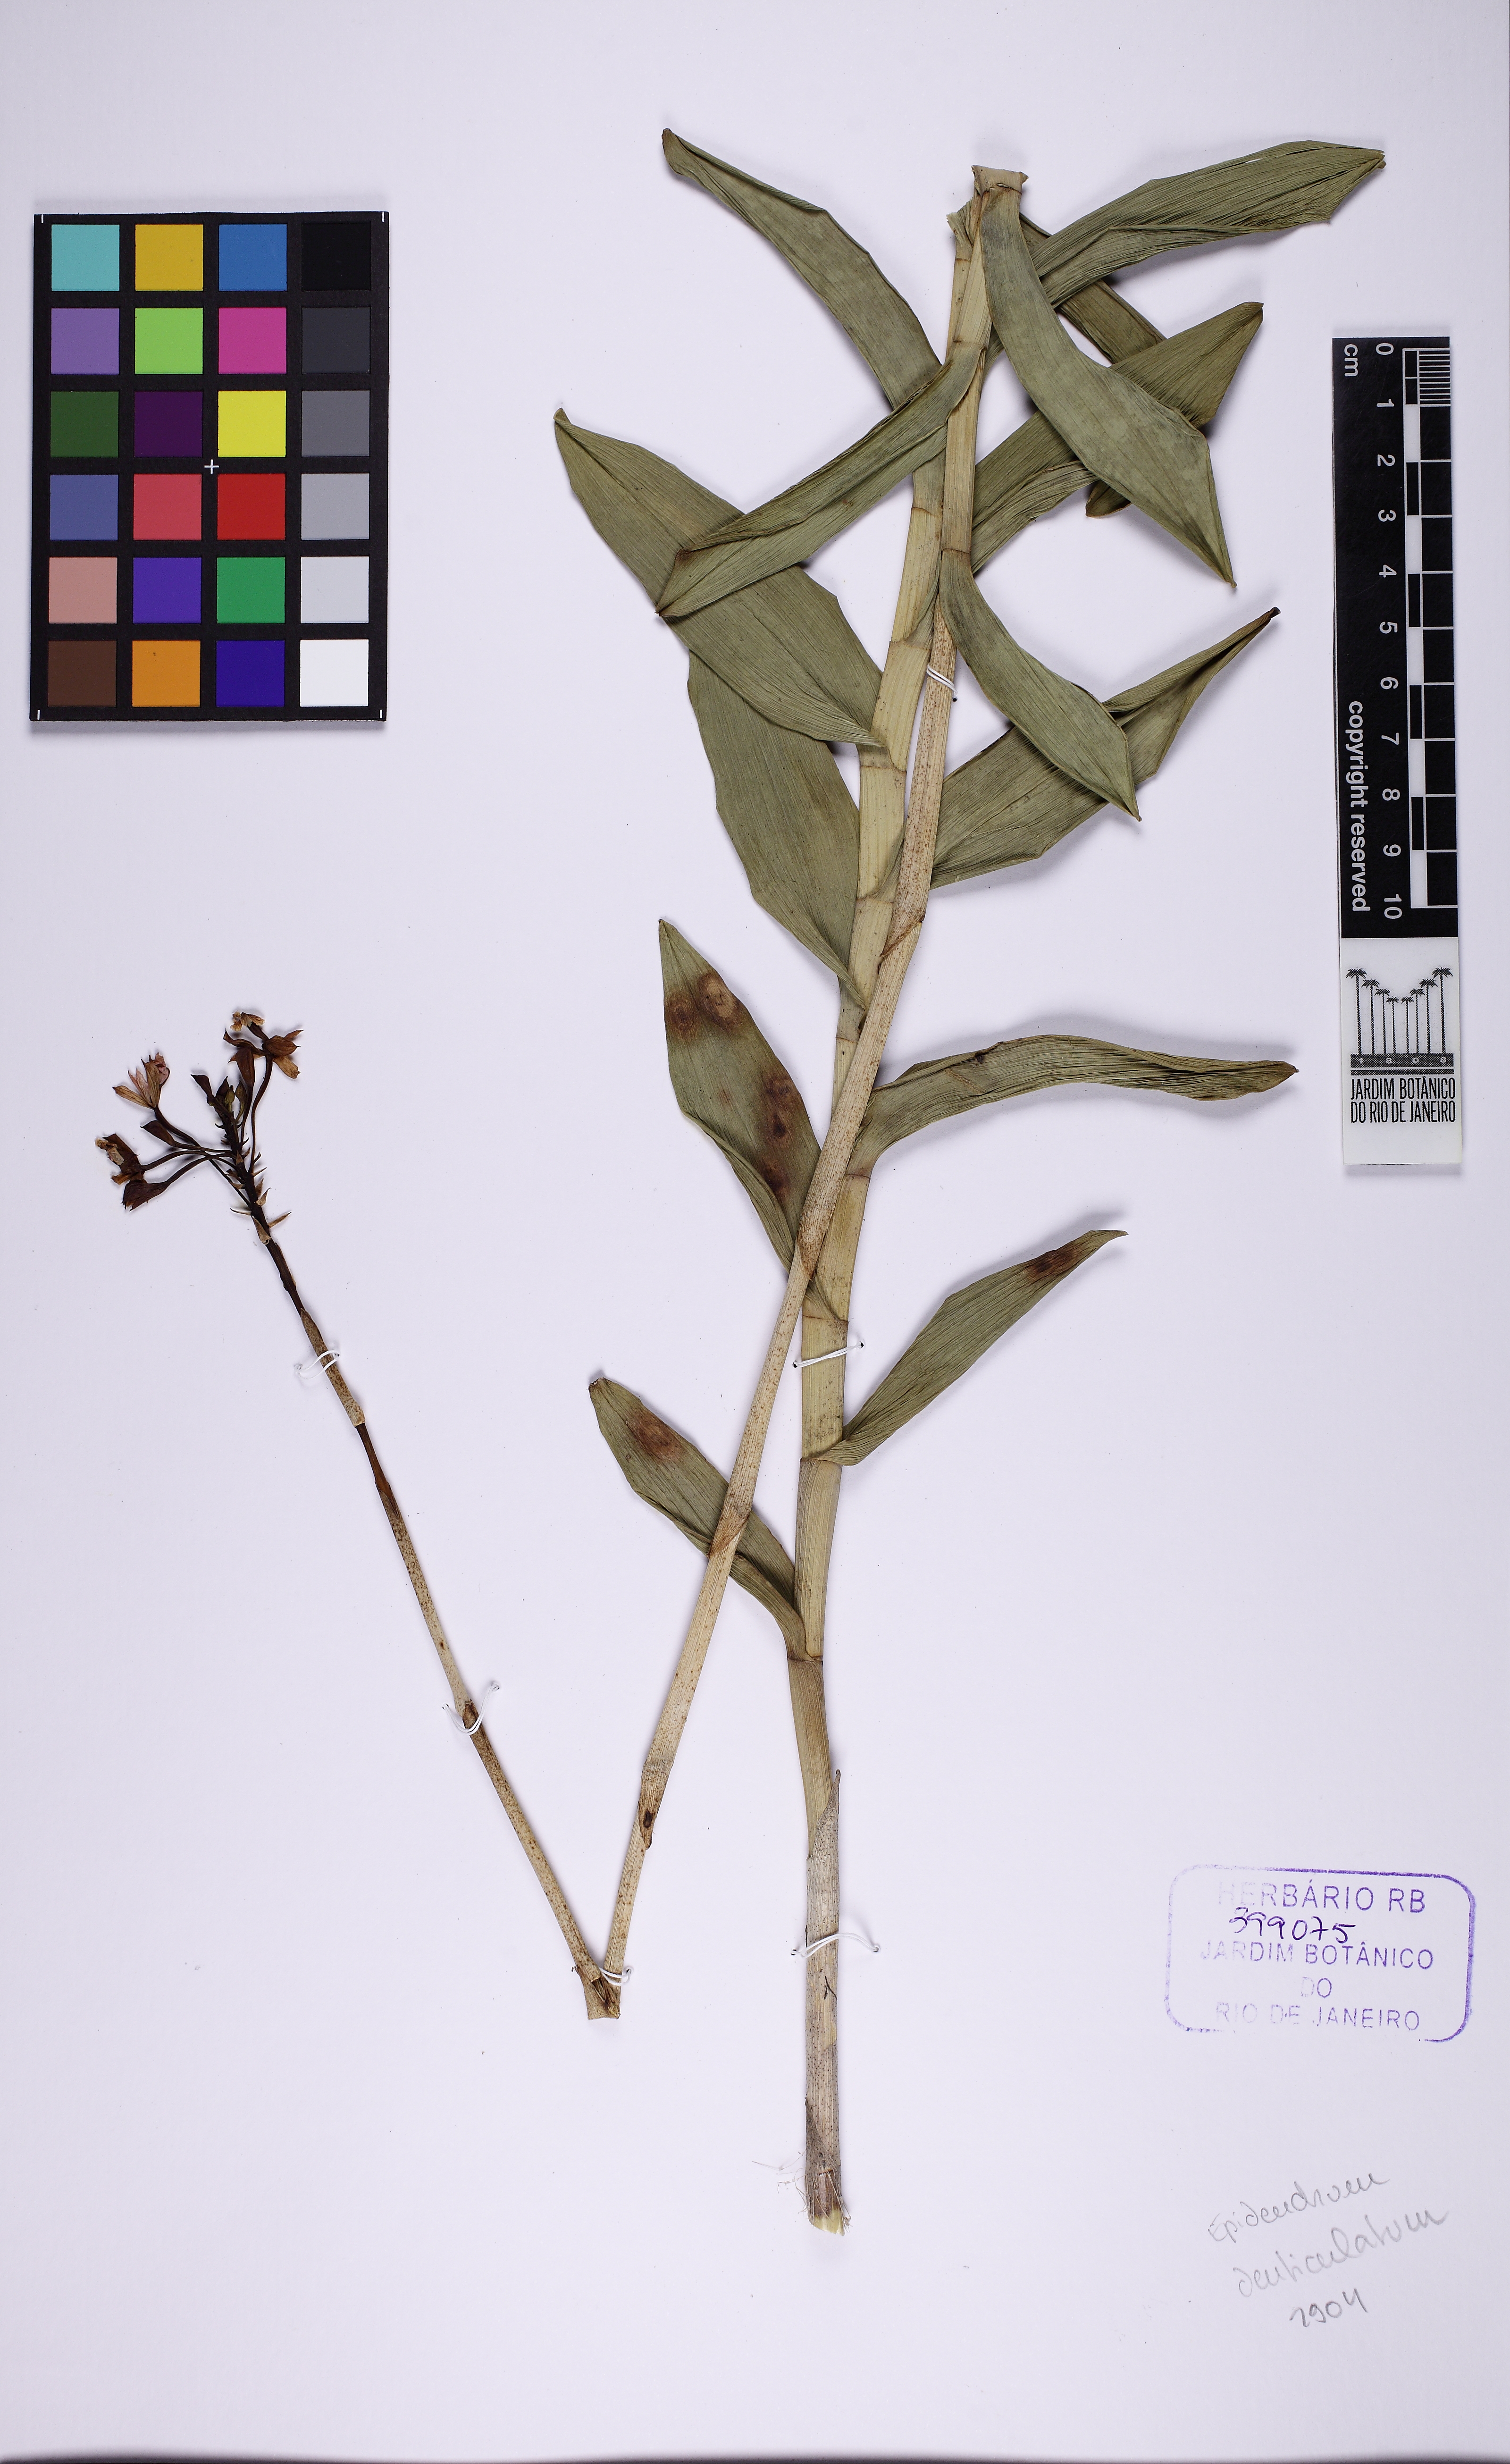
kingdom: Plantae
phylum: Tracheophyta
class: Liliopsida
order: Asparagales
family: Orchidaceae
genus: Epidendrum
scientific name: Epidendrum denticulatum
